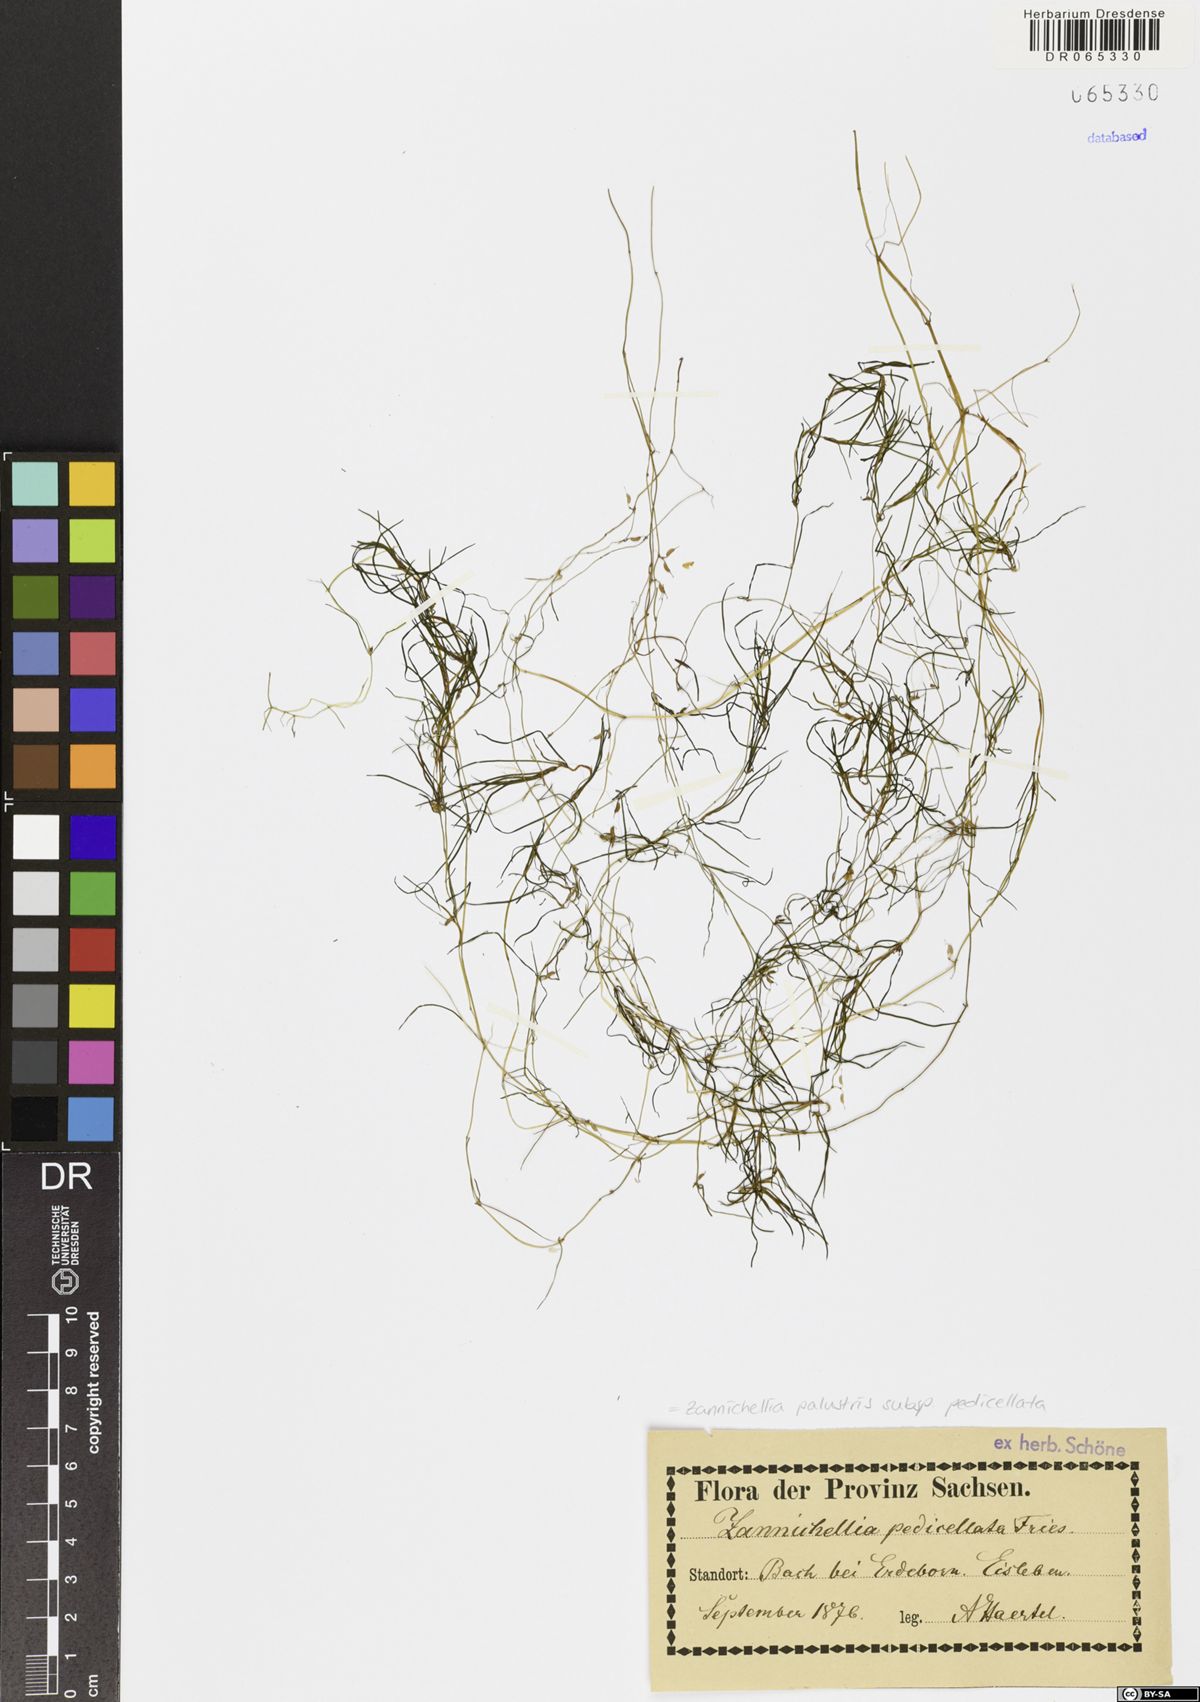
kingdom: Plantae
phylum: Tracheophyta
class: Liliopsida
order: Alismatales
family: Potamogetonaceae
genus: Zannichellia
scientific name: Zannichellia palustris
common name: Horned pondweed
